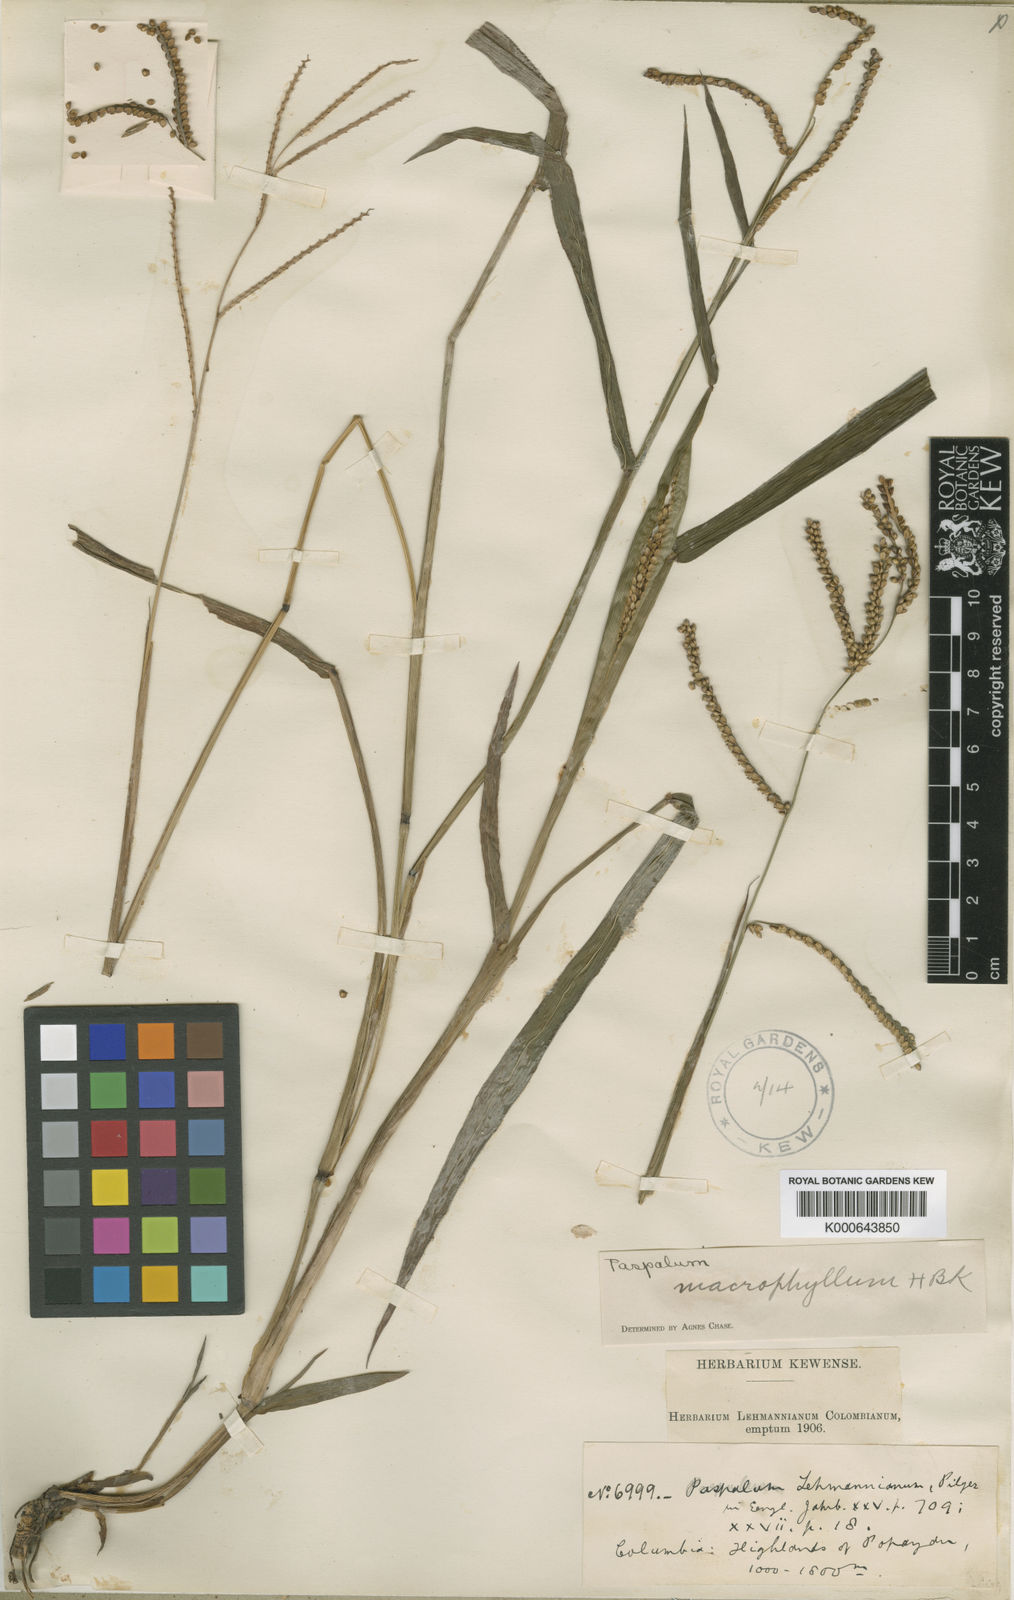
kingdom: Plantae
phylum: Tracheophyta
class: Liliopsida
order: Poales
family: Poaceae
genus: Paspalum
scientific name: Paspalum
